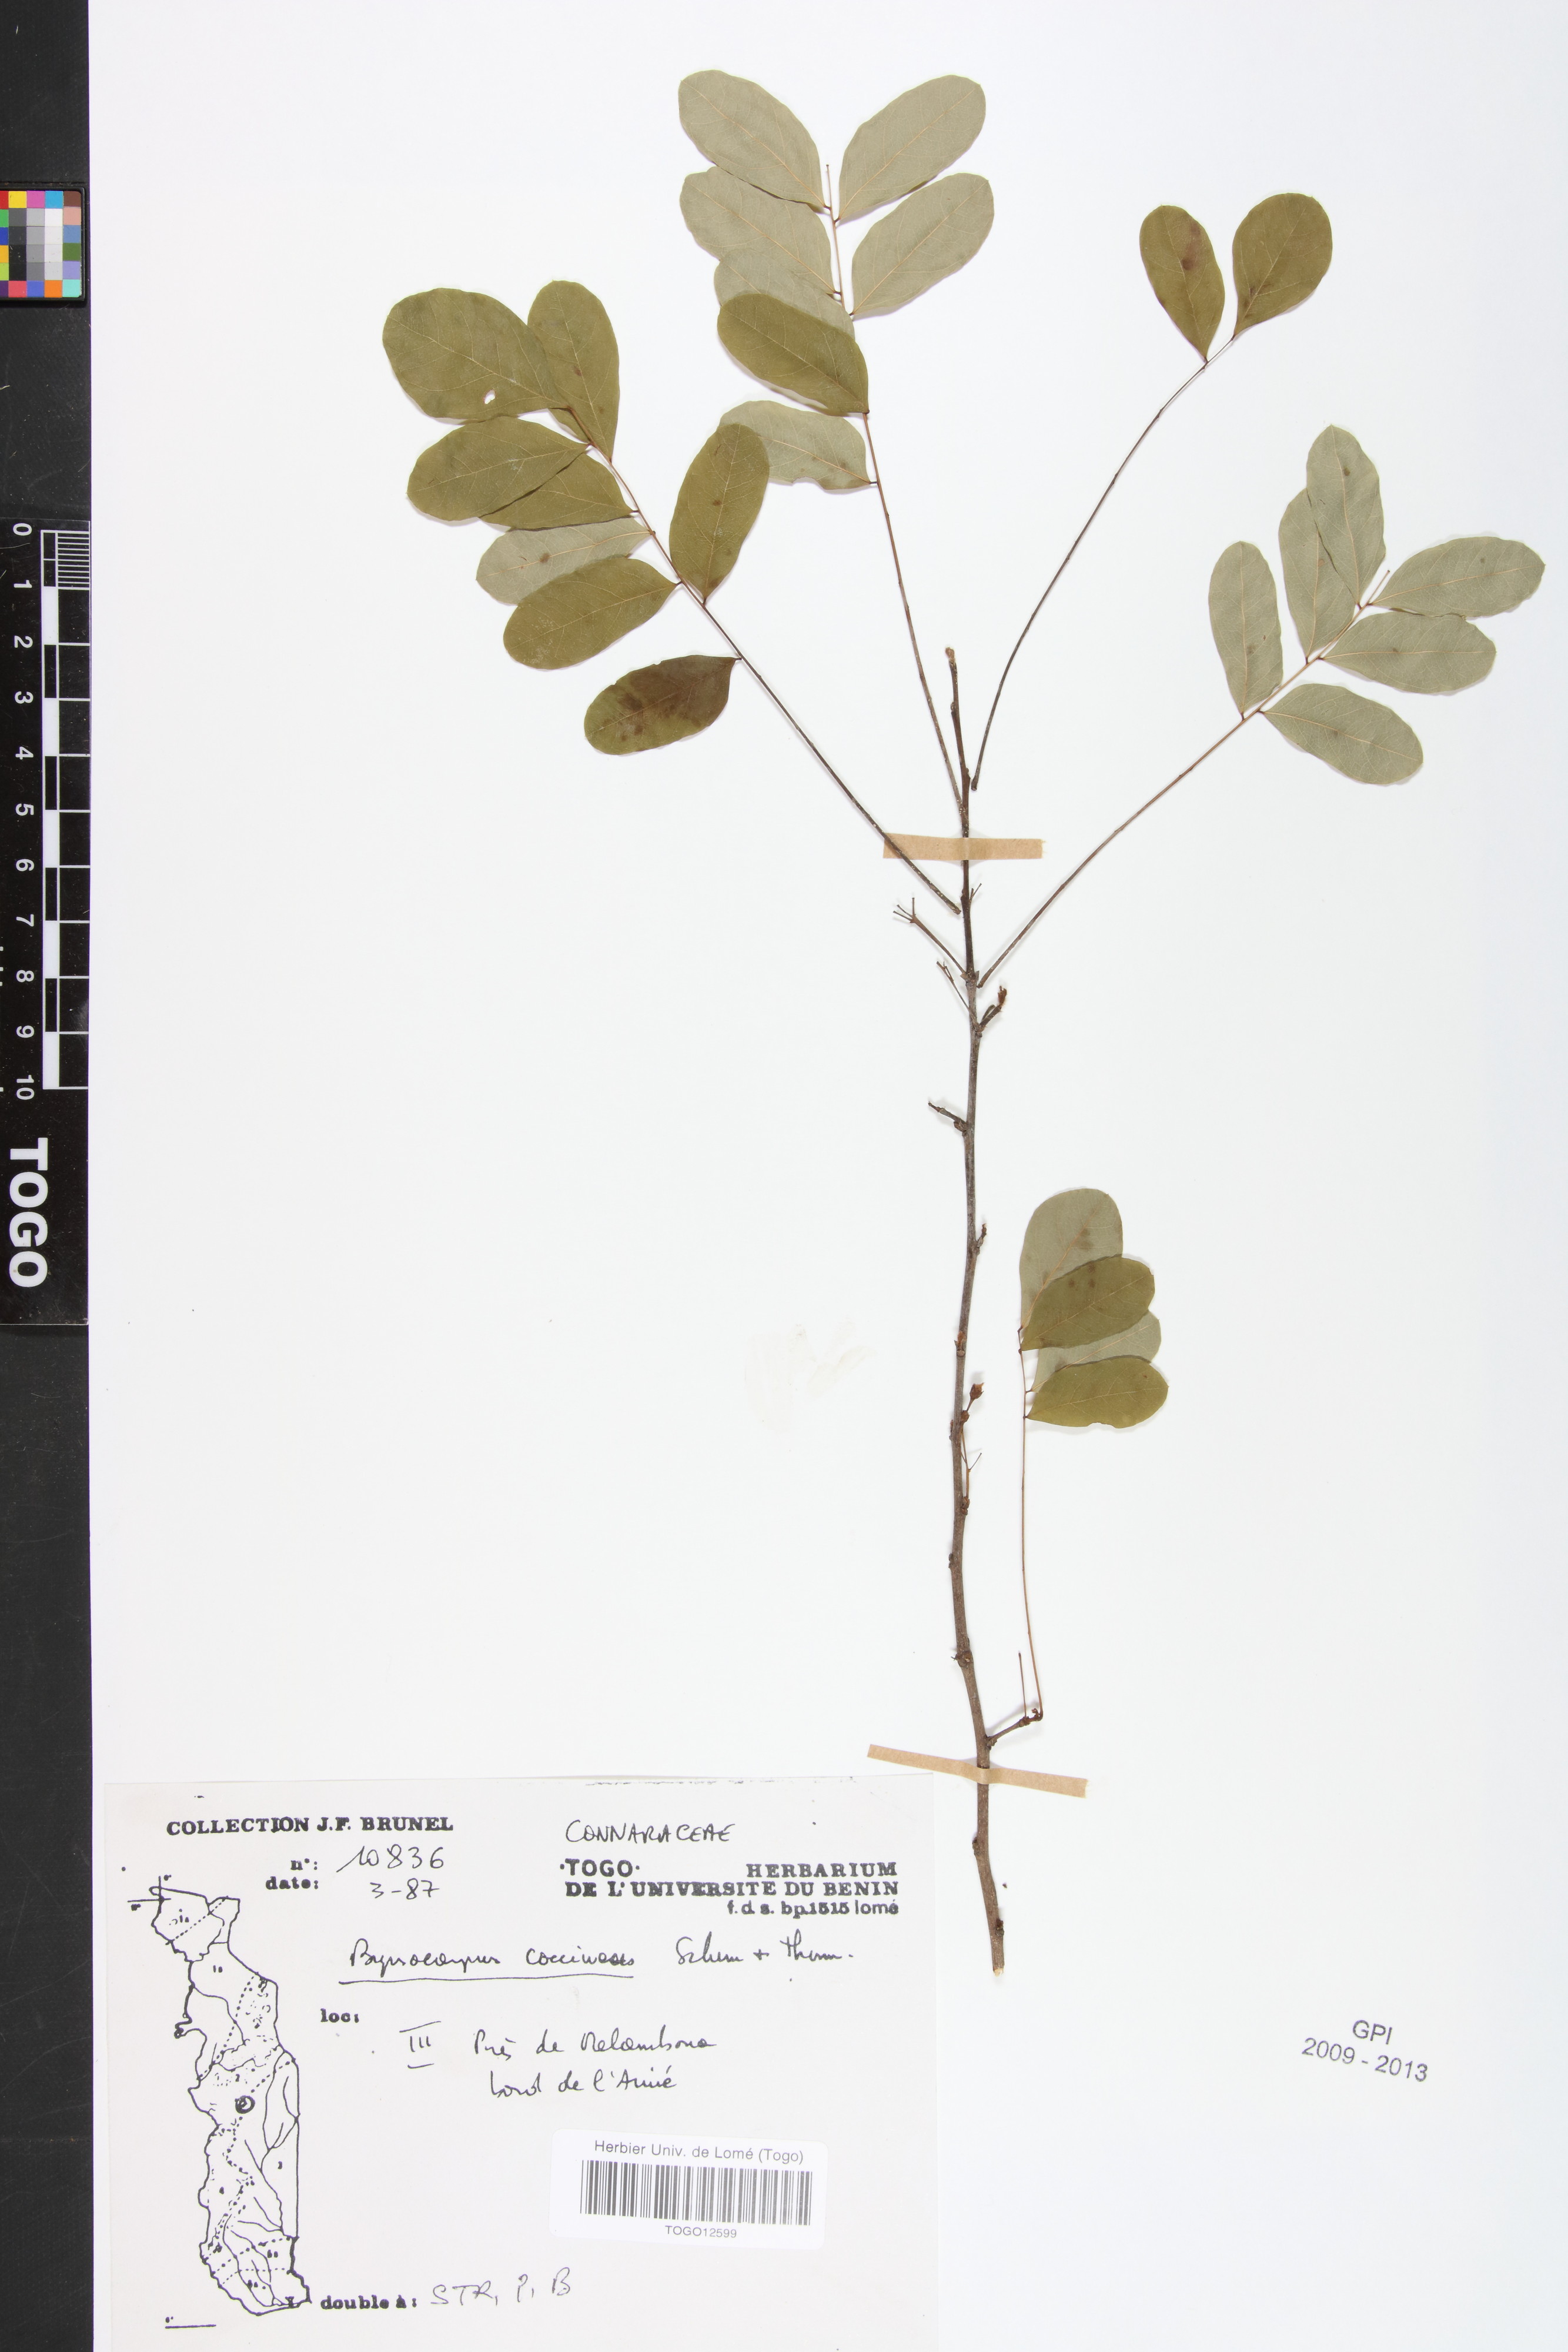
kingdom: Plantae
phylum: Tracheophyta
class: Magnoliopsida
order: Oxalidales
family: Connaraceae
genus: Rourea
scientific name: Rourea coccinea
